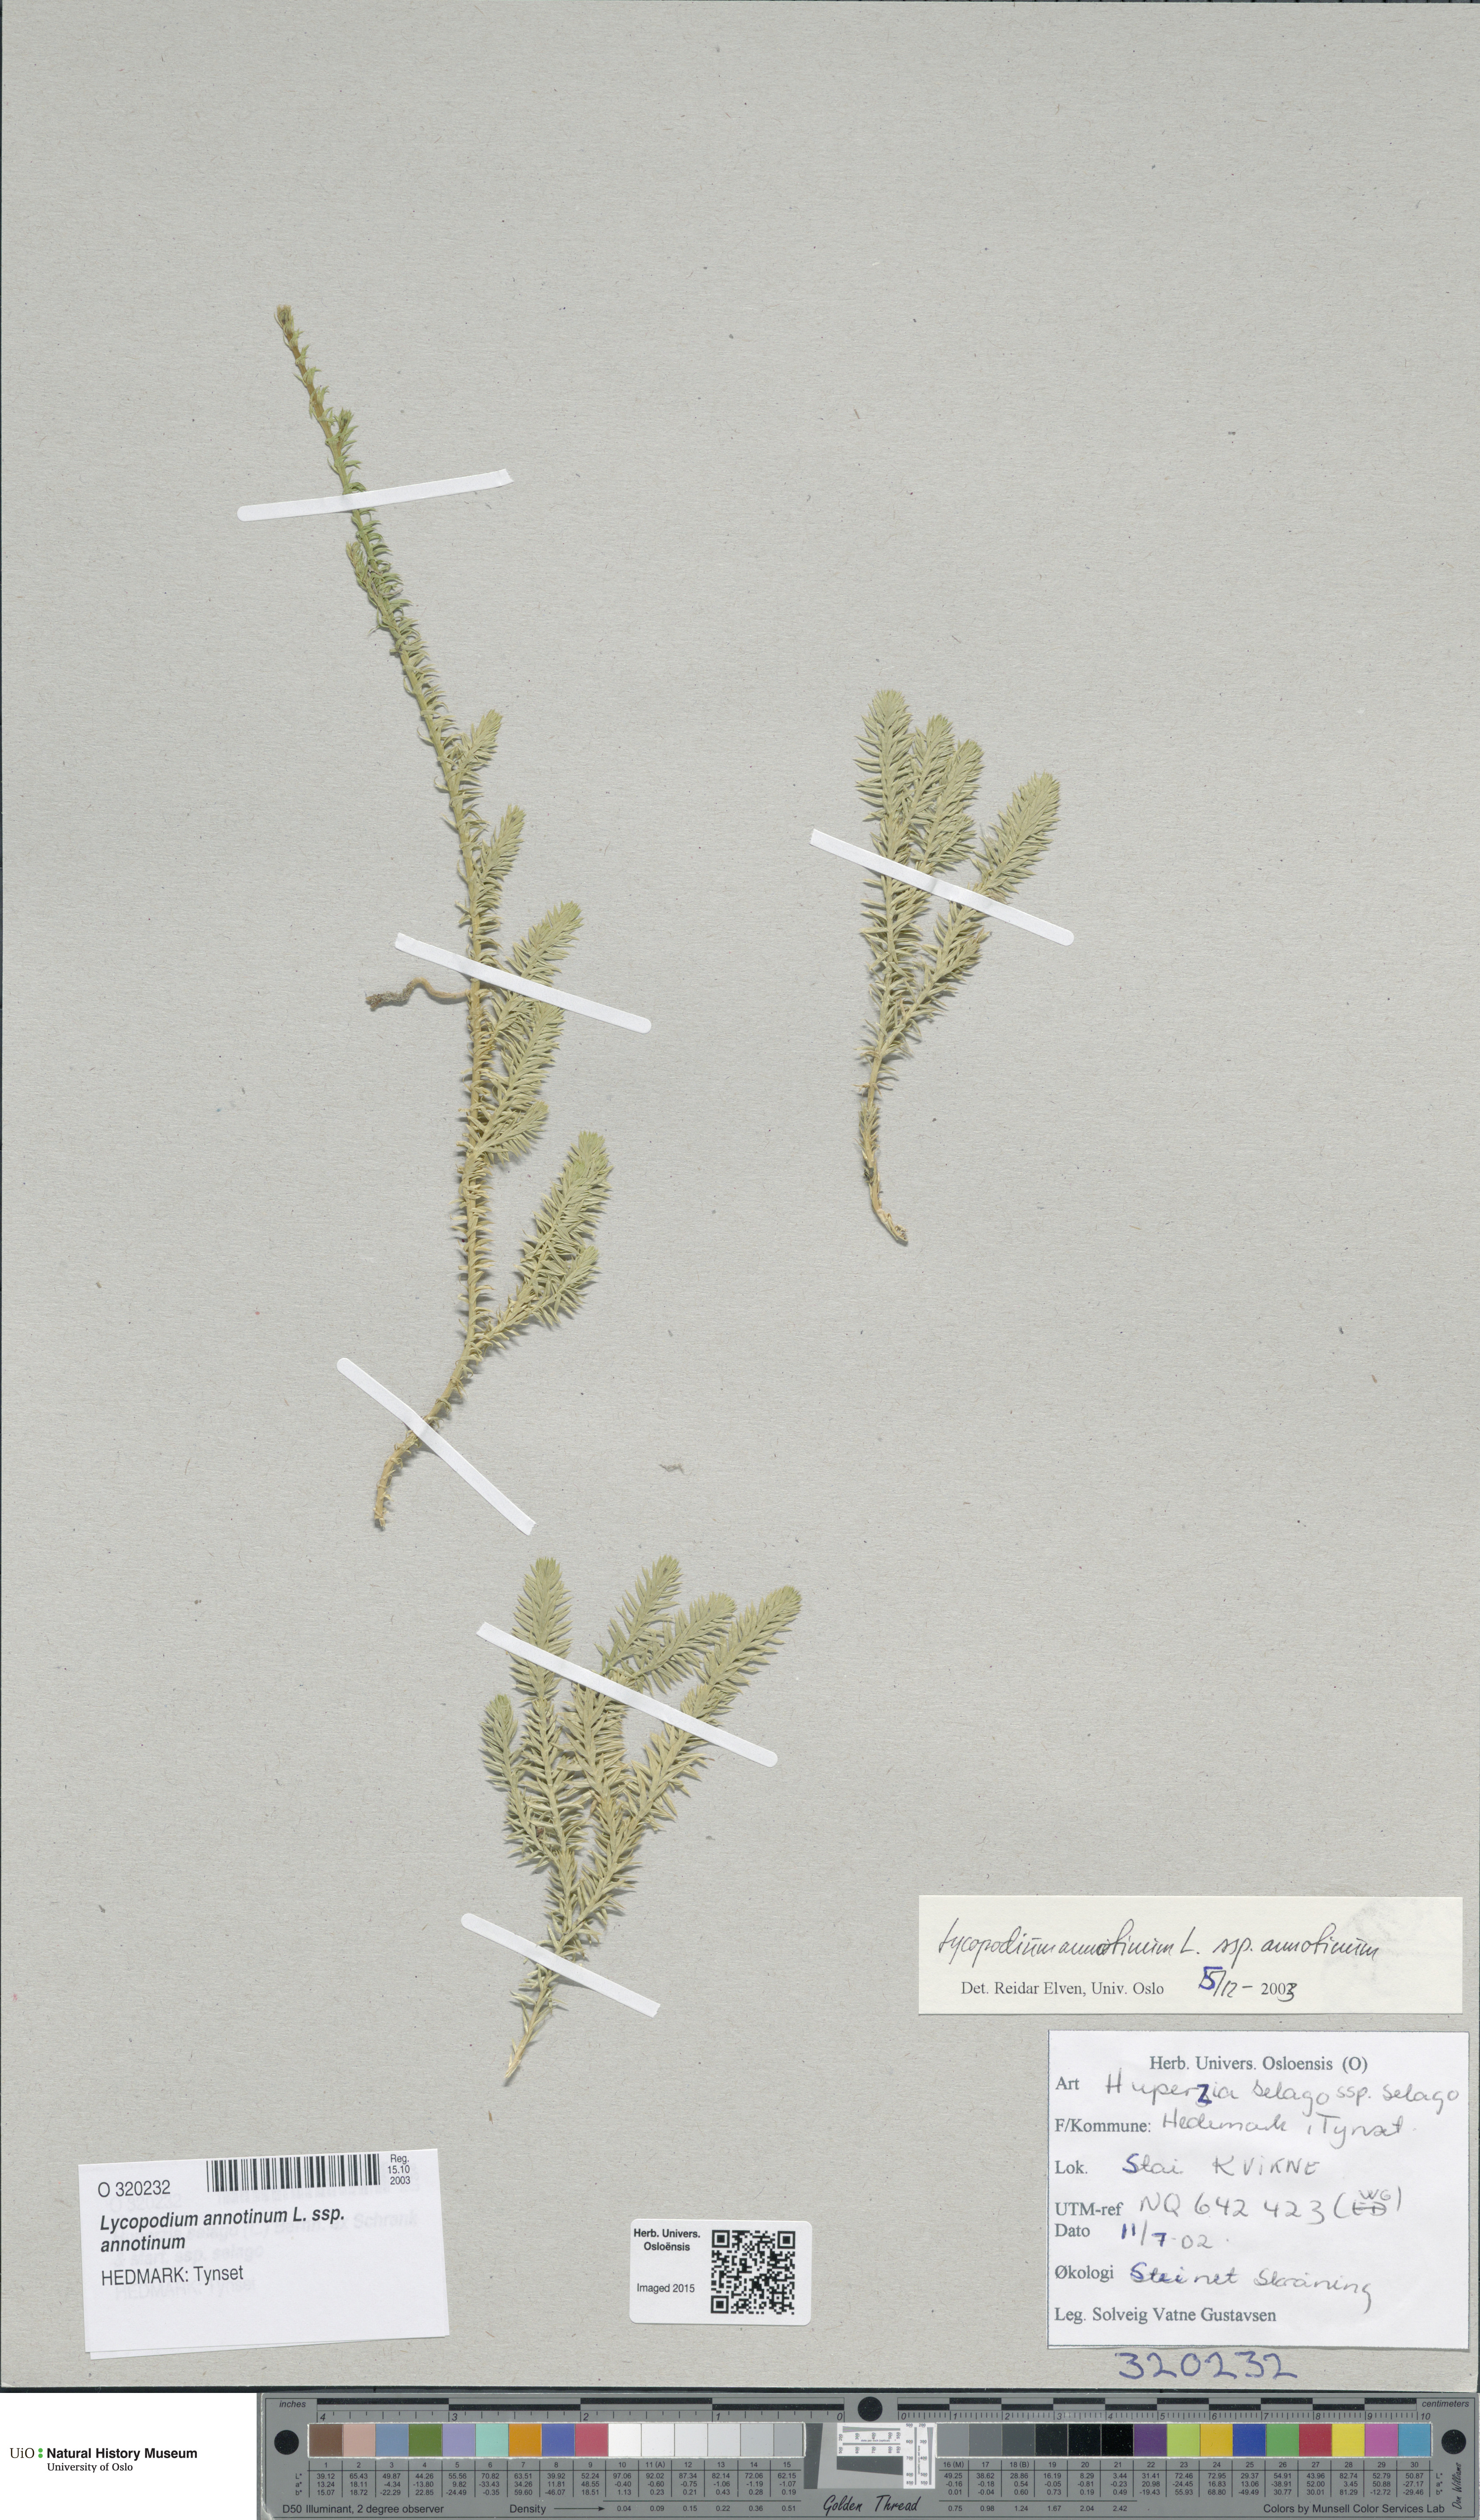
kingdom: Plantae
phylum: Tracheophyta
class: Lycopodiopsida
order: Lycopodiales
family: Lycopodiaceae
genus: Spinulum
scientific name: Spinulum annotinum
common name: Interrupted club-moss
